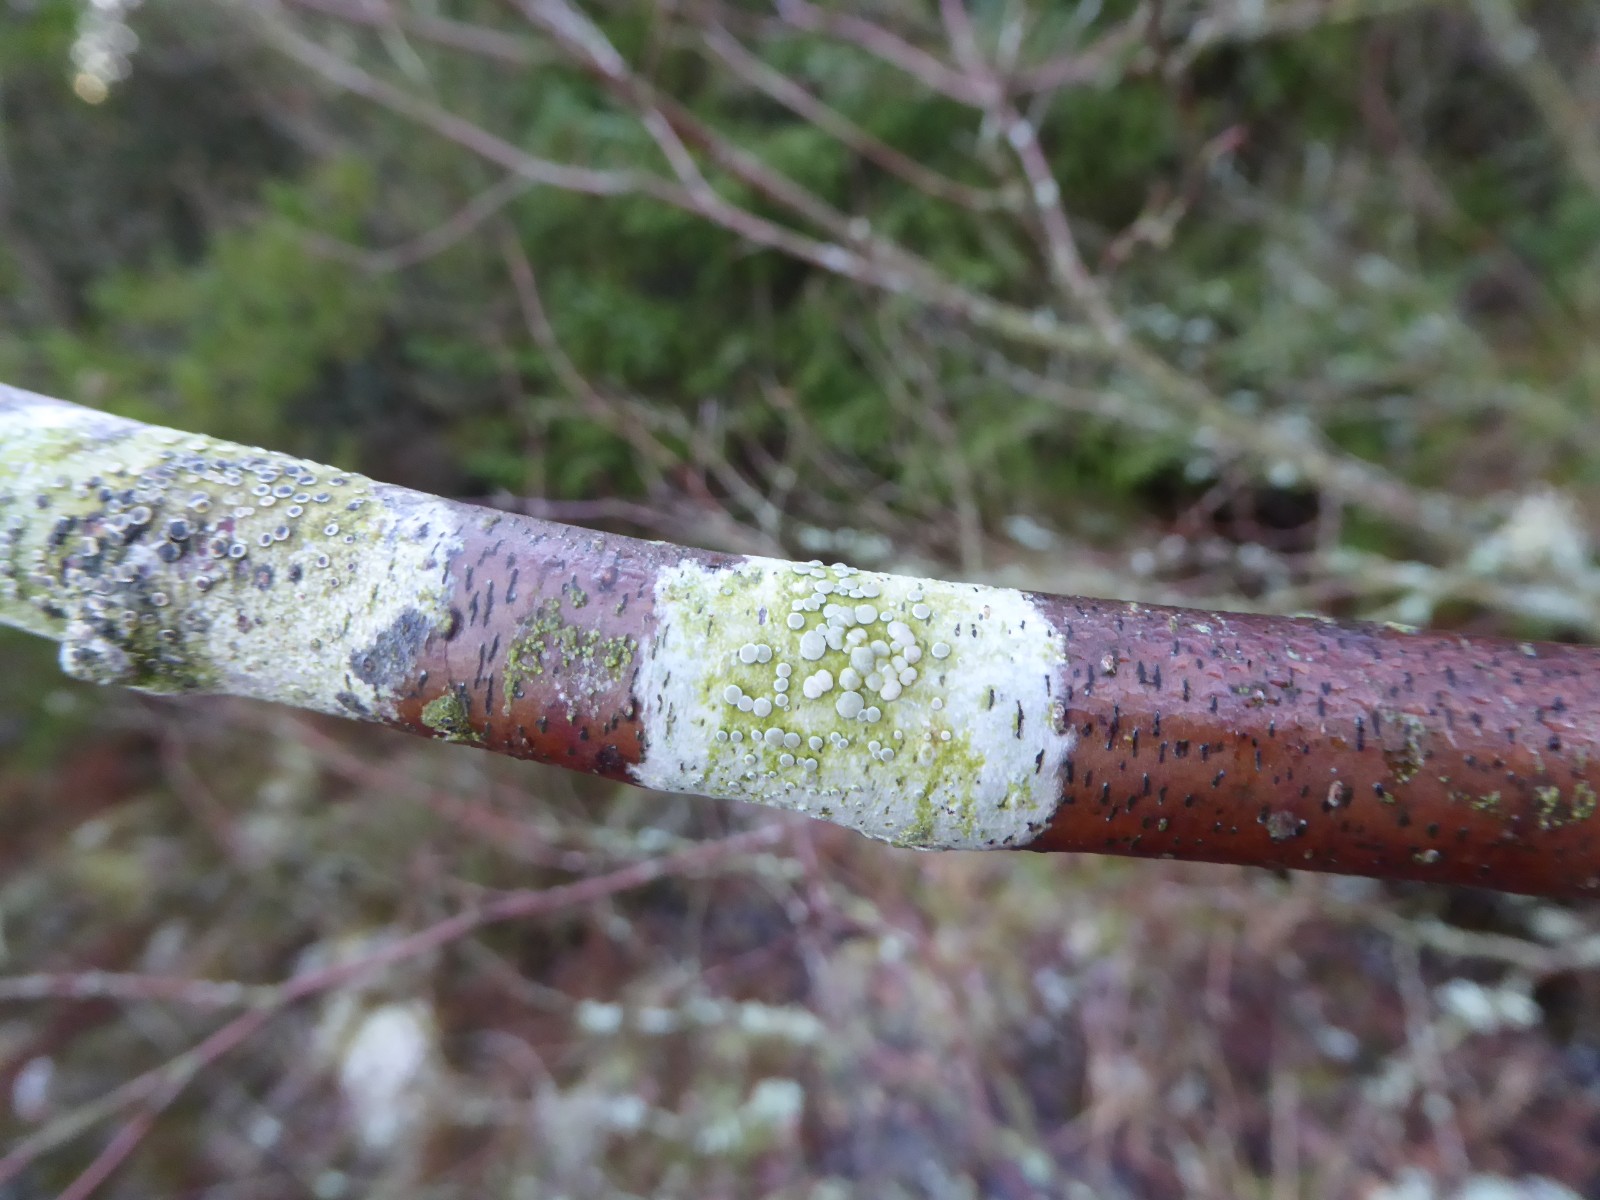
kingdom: Fungi
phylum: Ascomycota
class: Lecanoromycetes
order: Lecanorales
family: Lecanoraceae
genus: Glaucomaria
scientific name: Glaucomaria carpinea
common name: hviddugget kantskivelav
